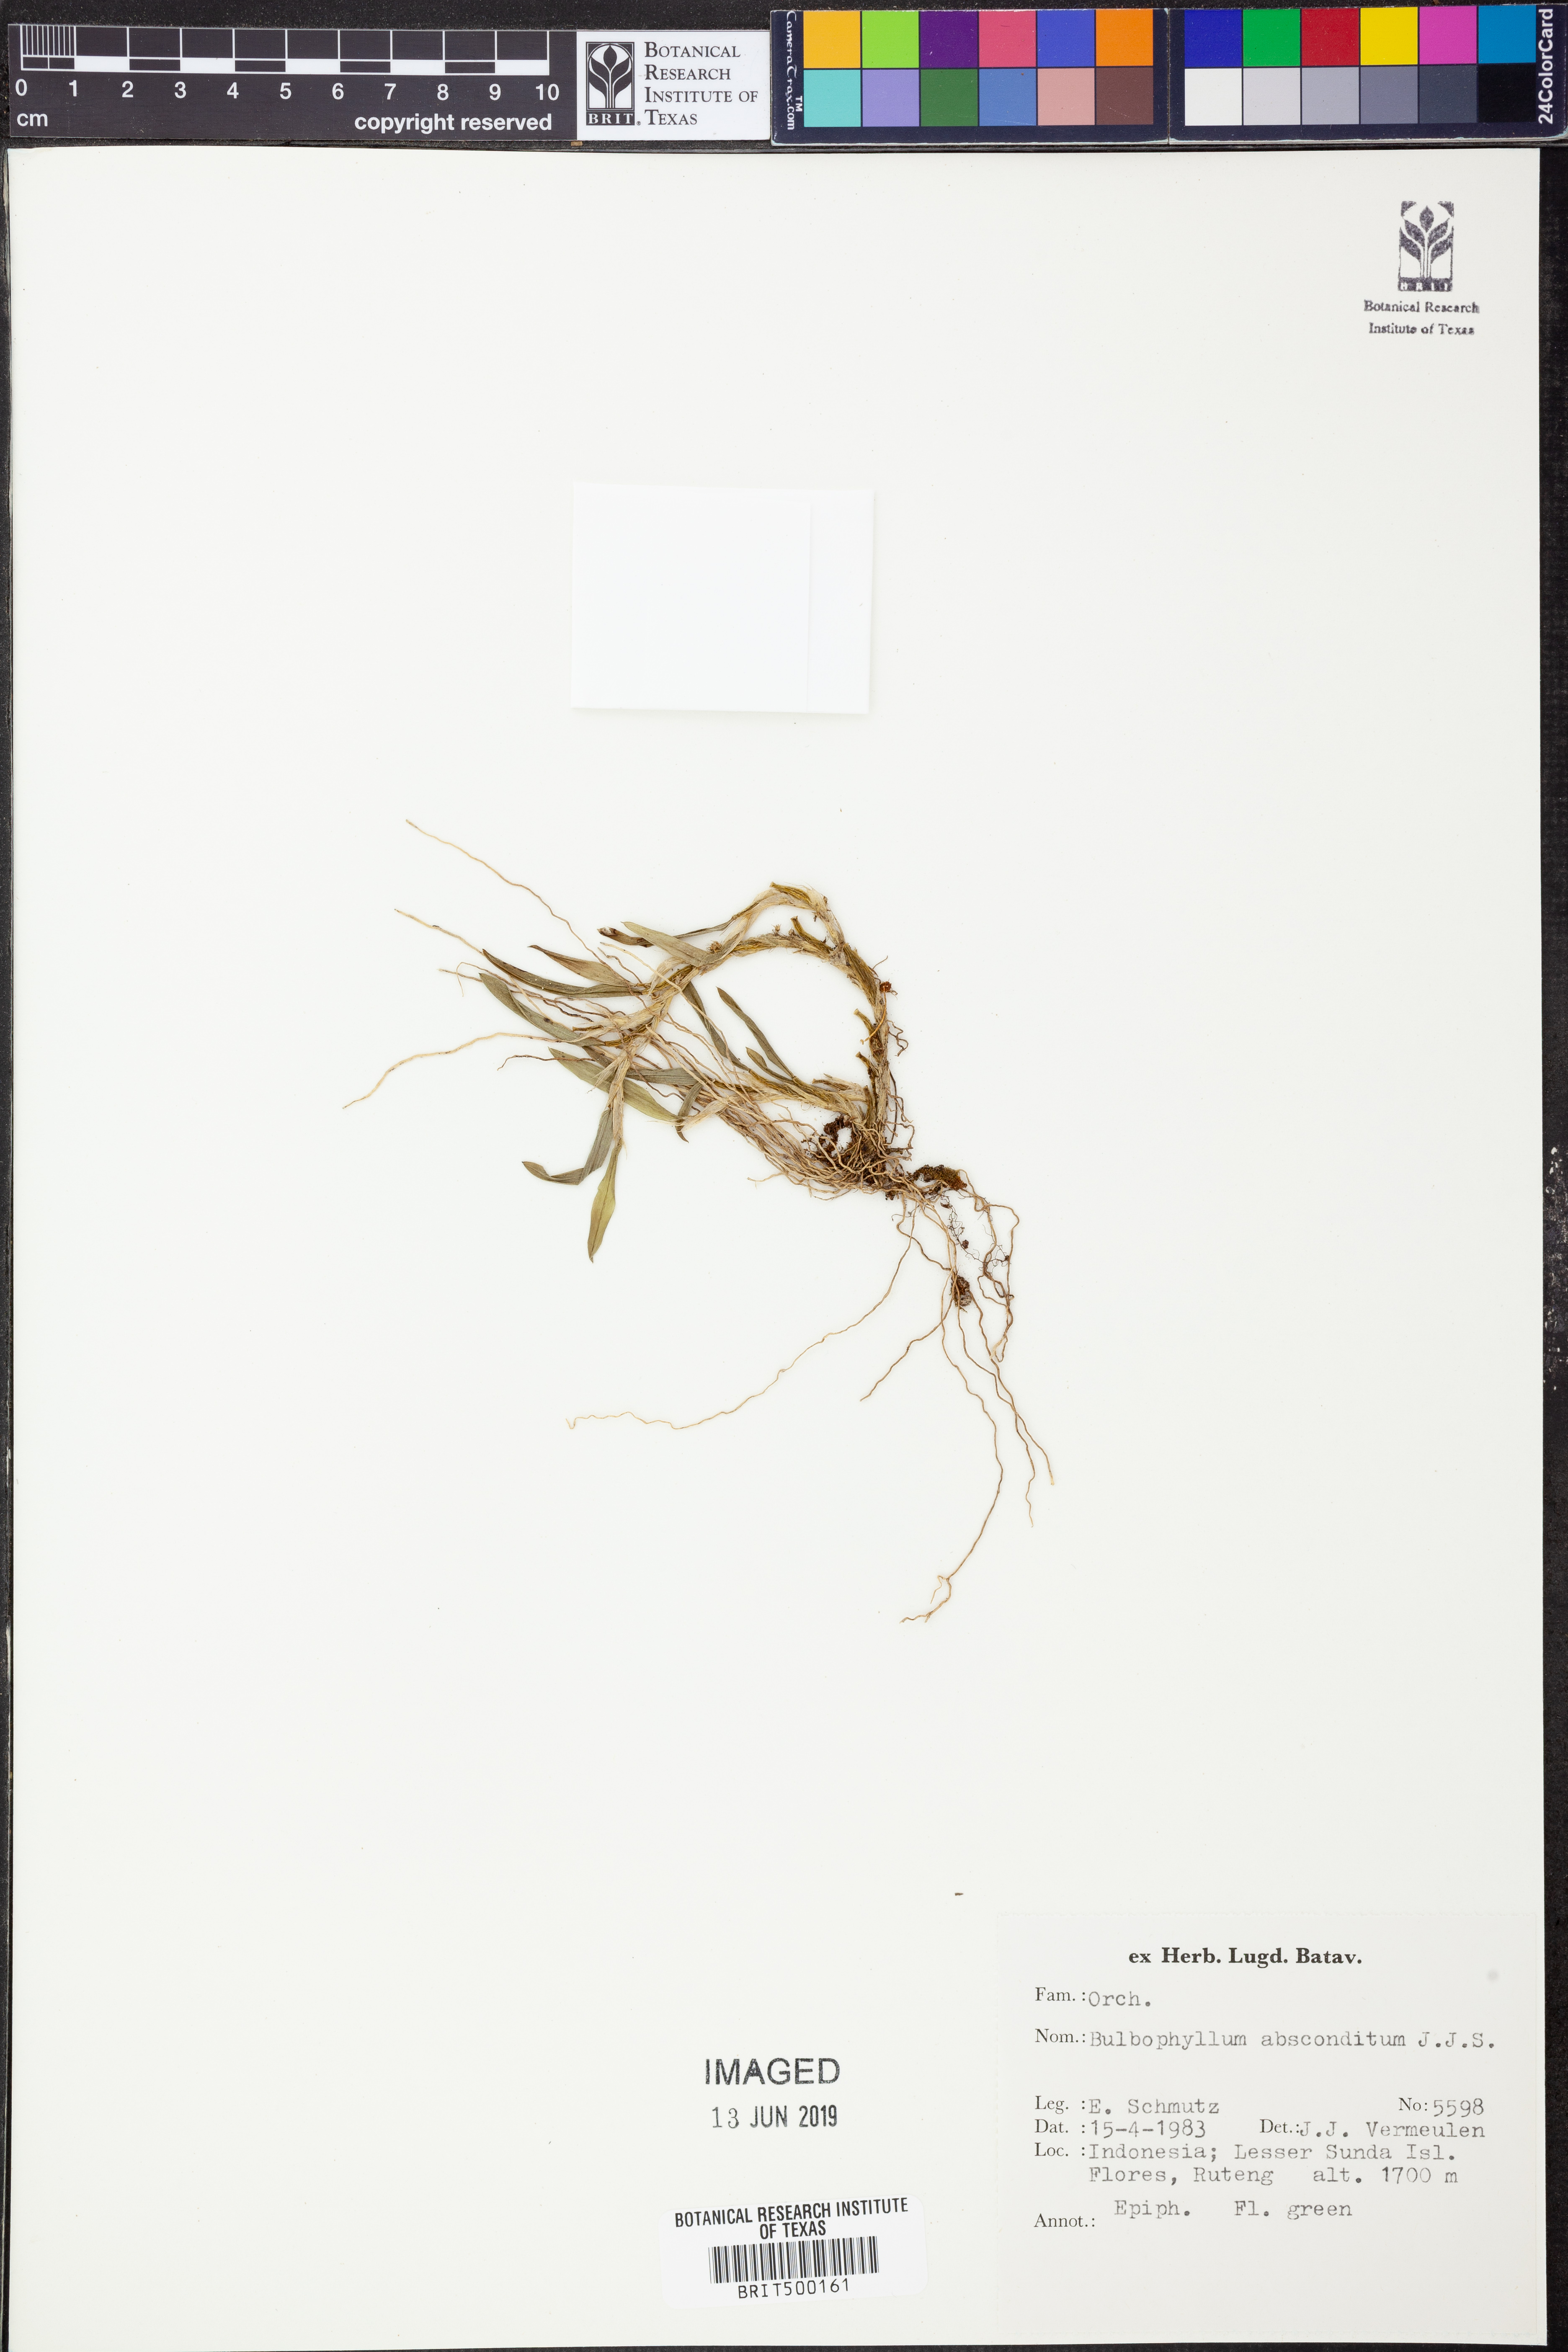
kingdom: Plantae
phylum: Tracheophyta
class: Liliopsida
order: Asparagales
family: Orchidaceae
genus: Bulbophyllum
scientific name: Bulbophyllum absconditum
